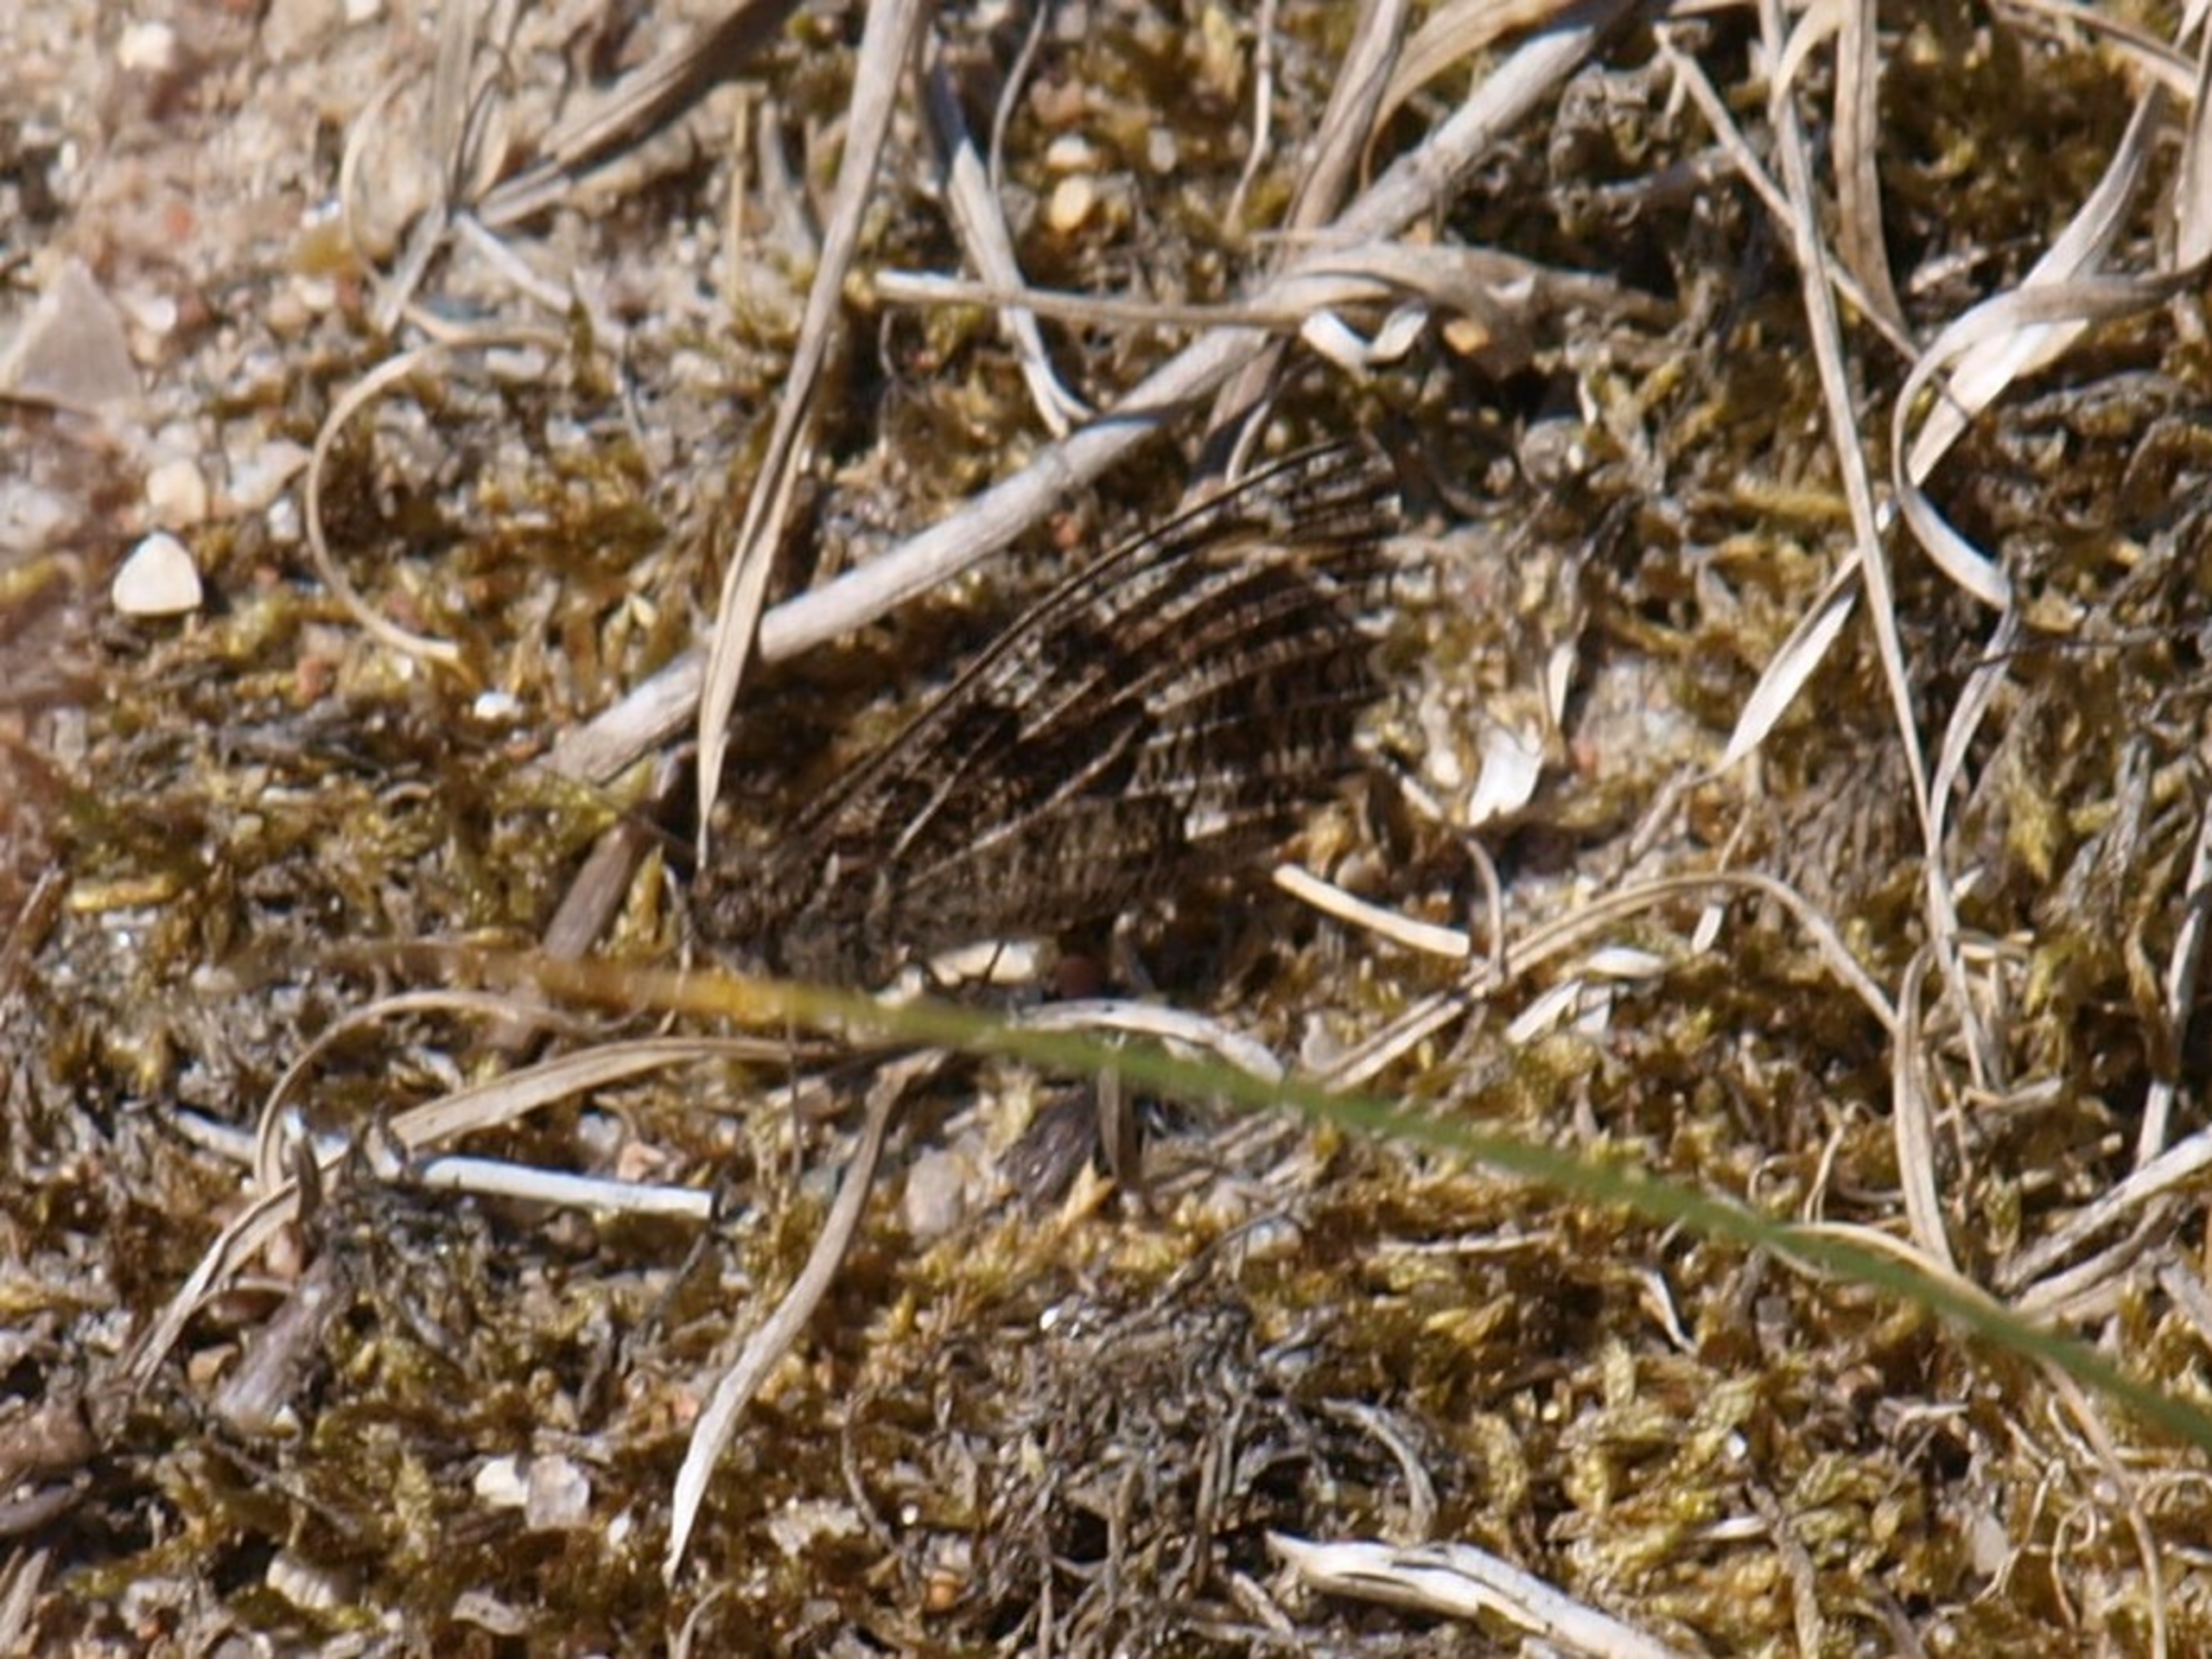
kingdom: Animalia
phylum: Arthropoda
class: Insecta
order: Lepidoptera
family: Nymphalidae
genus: Hipparchia
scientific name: Hipparchia semele
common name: Sandrandøje
